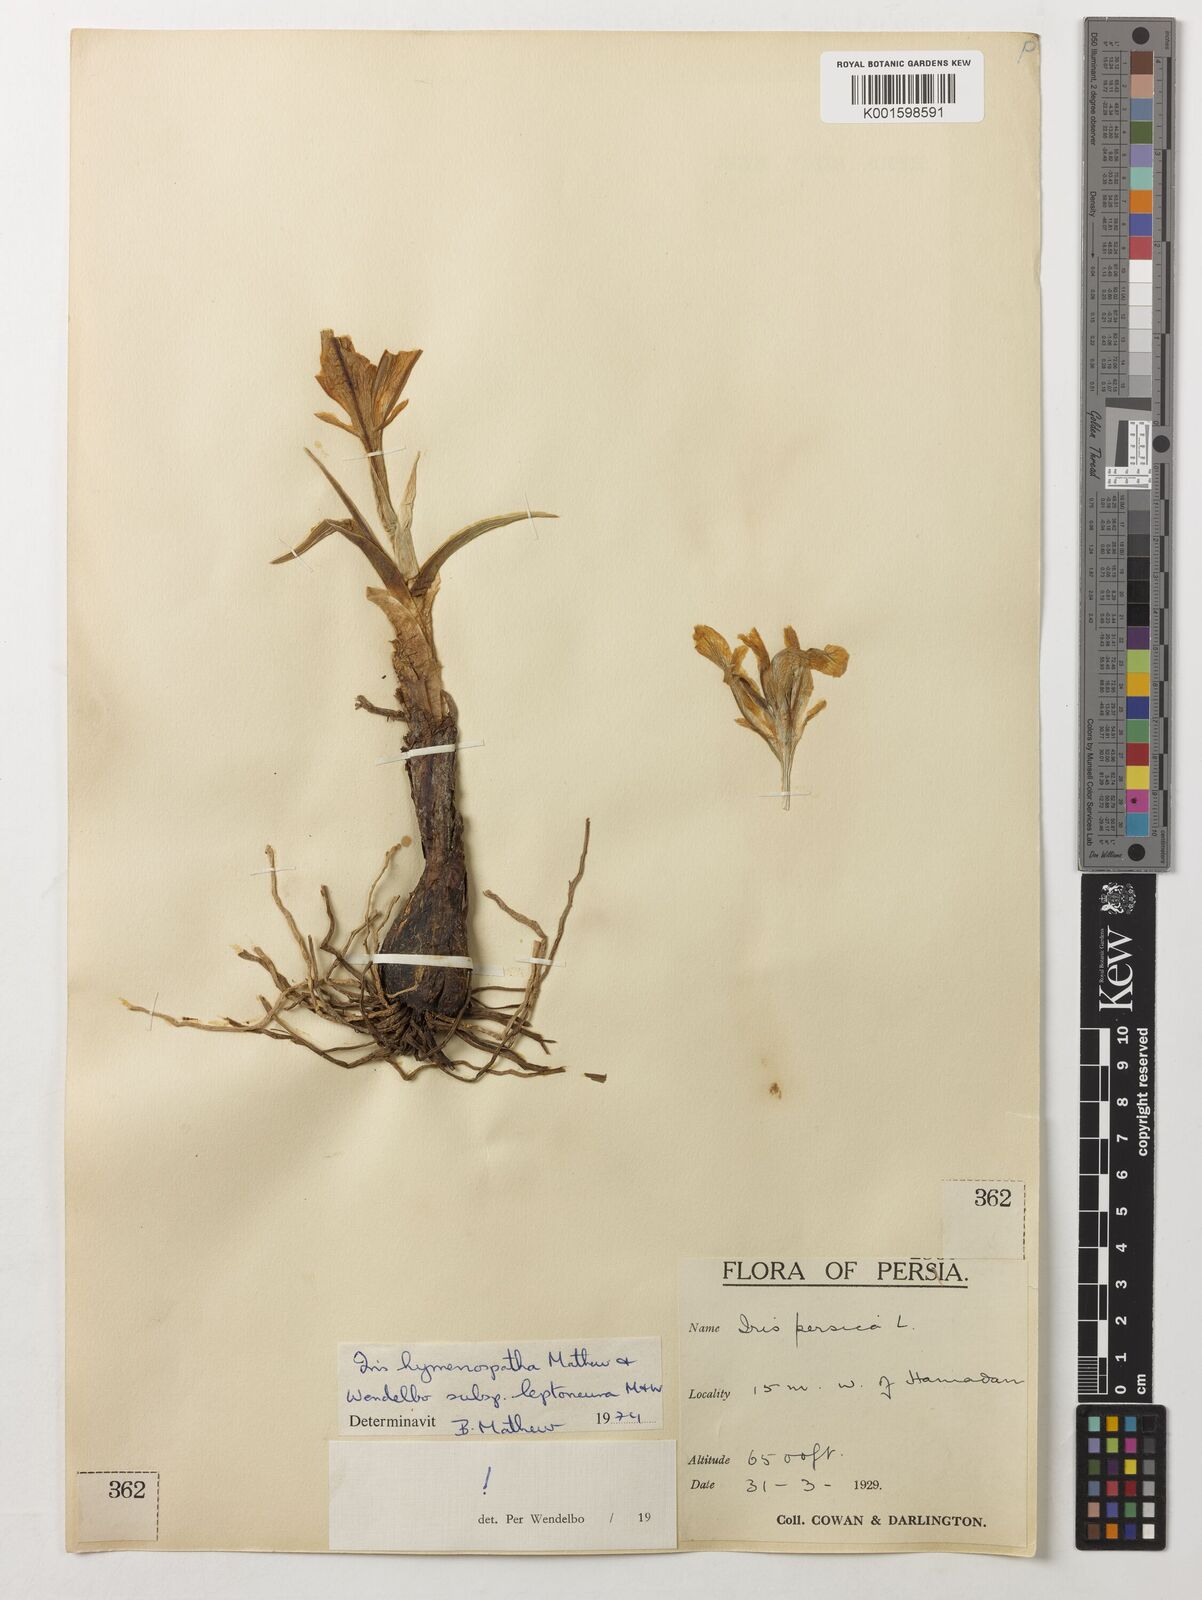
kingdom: Plantae
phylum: Tracheophyta
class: Liliopsida
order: Asparagales
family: Iridaceae
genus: Iris
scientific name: Iris hymenospatha
